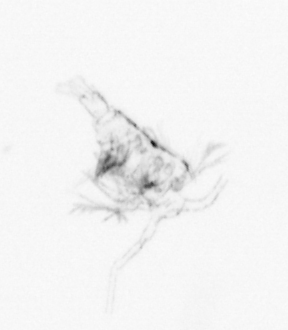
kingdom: Animalia
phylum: Arthropoda
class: Copepoda
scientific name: Copepoda
